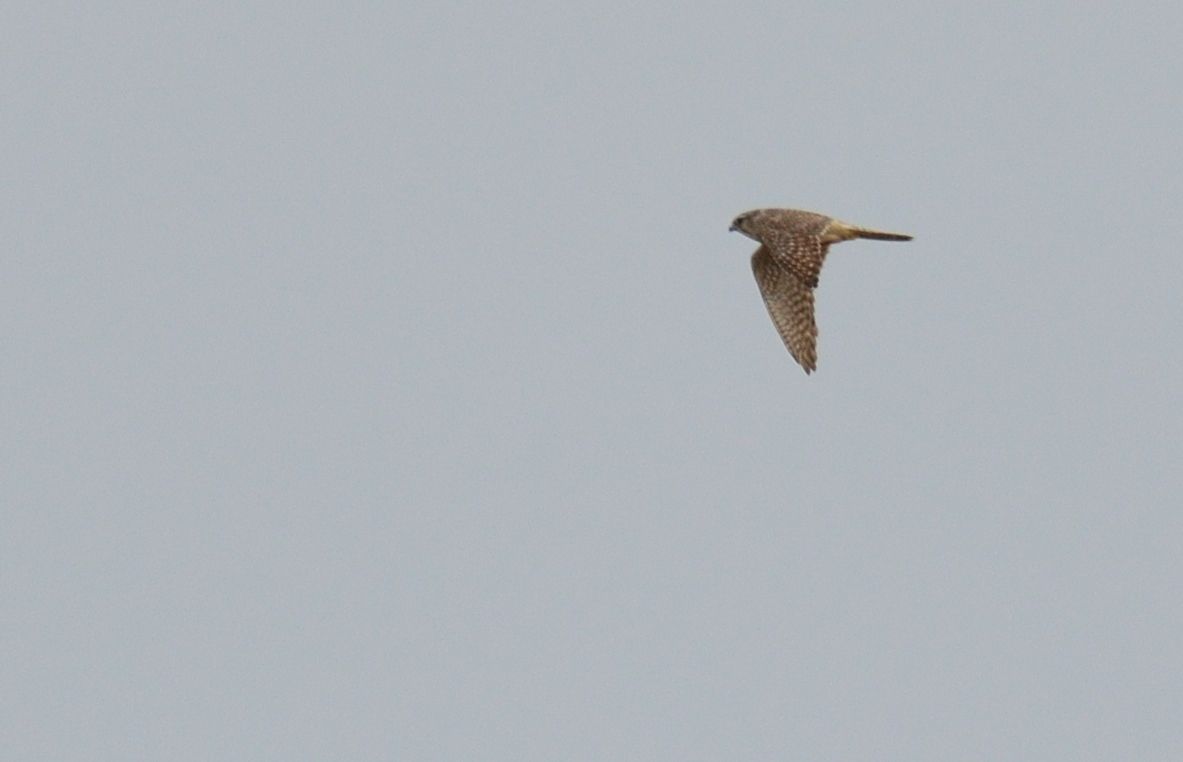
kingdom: Animalia
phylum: Chordata
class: Aves
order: Falconiformes
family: Falconidae
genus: Falco
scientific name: Falco columbarius
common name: Merlin
